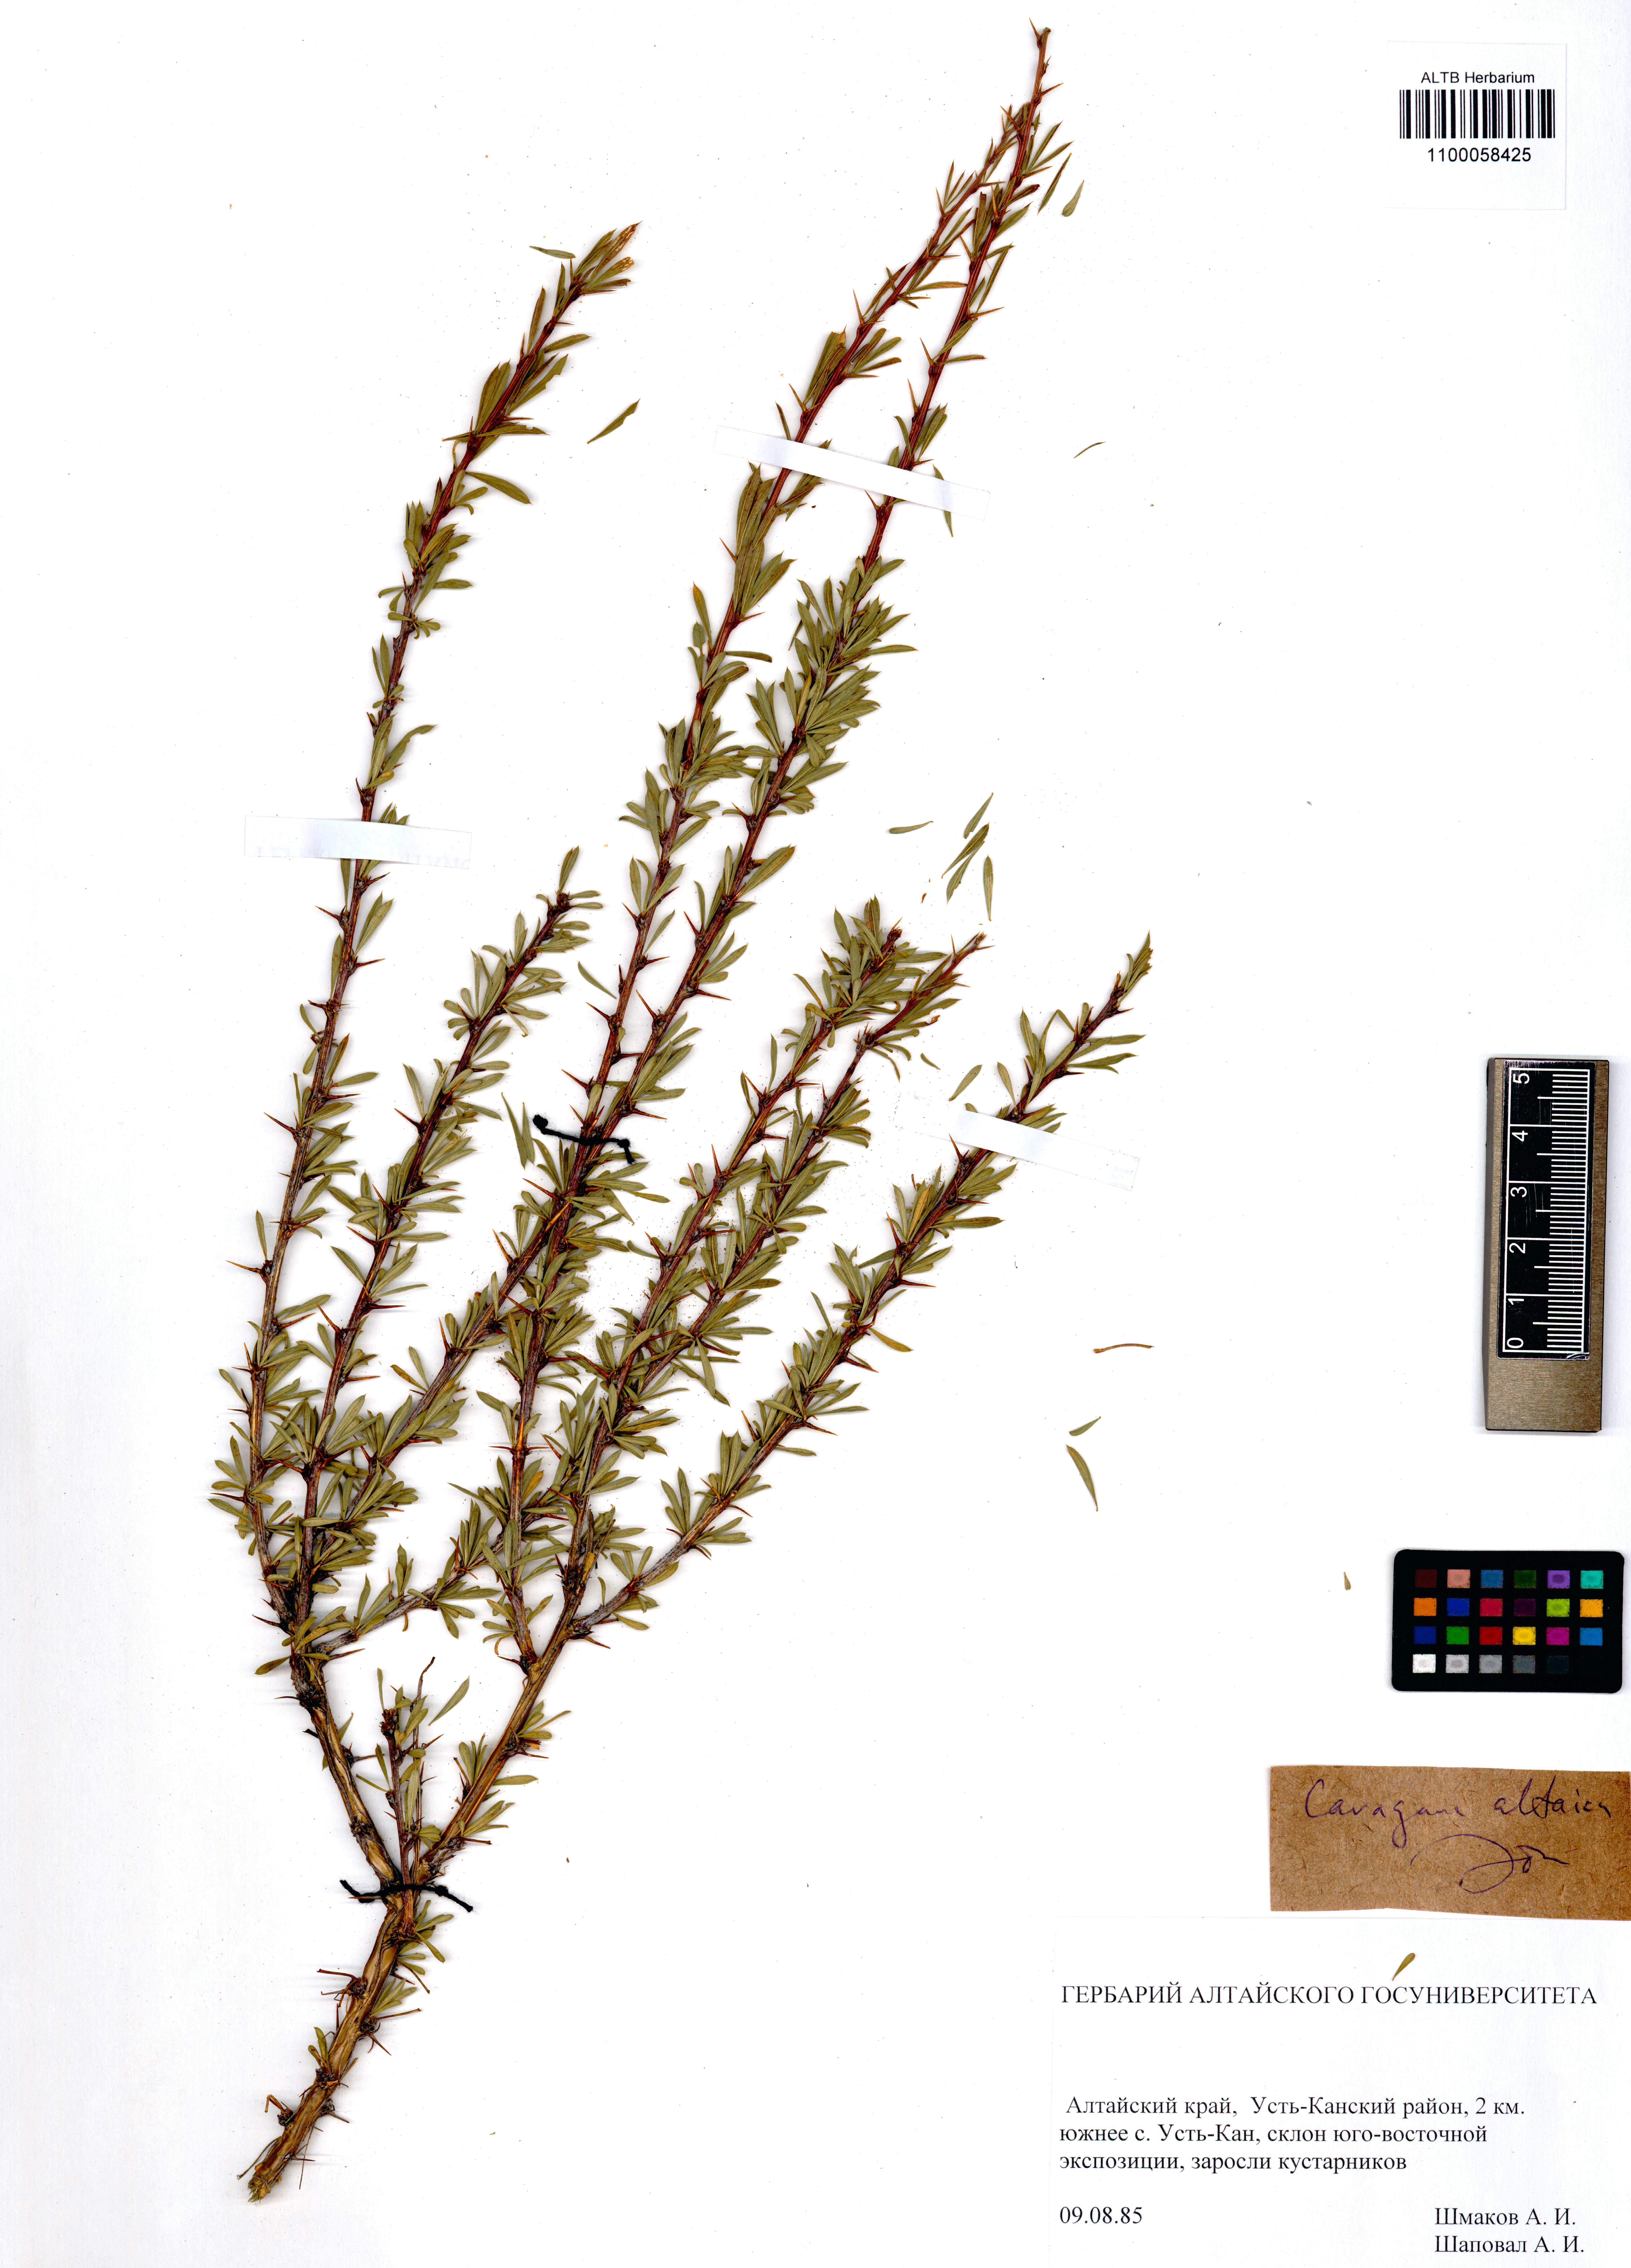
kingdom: Plantae
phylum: Tracheophyta
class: Magnoliopsida
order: Fabales
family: Fabaceae
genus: Caragana
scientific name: Caragana pygmaea
